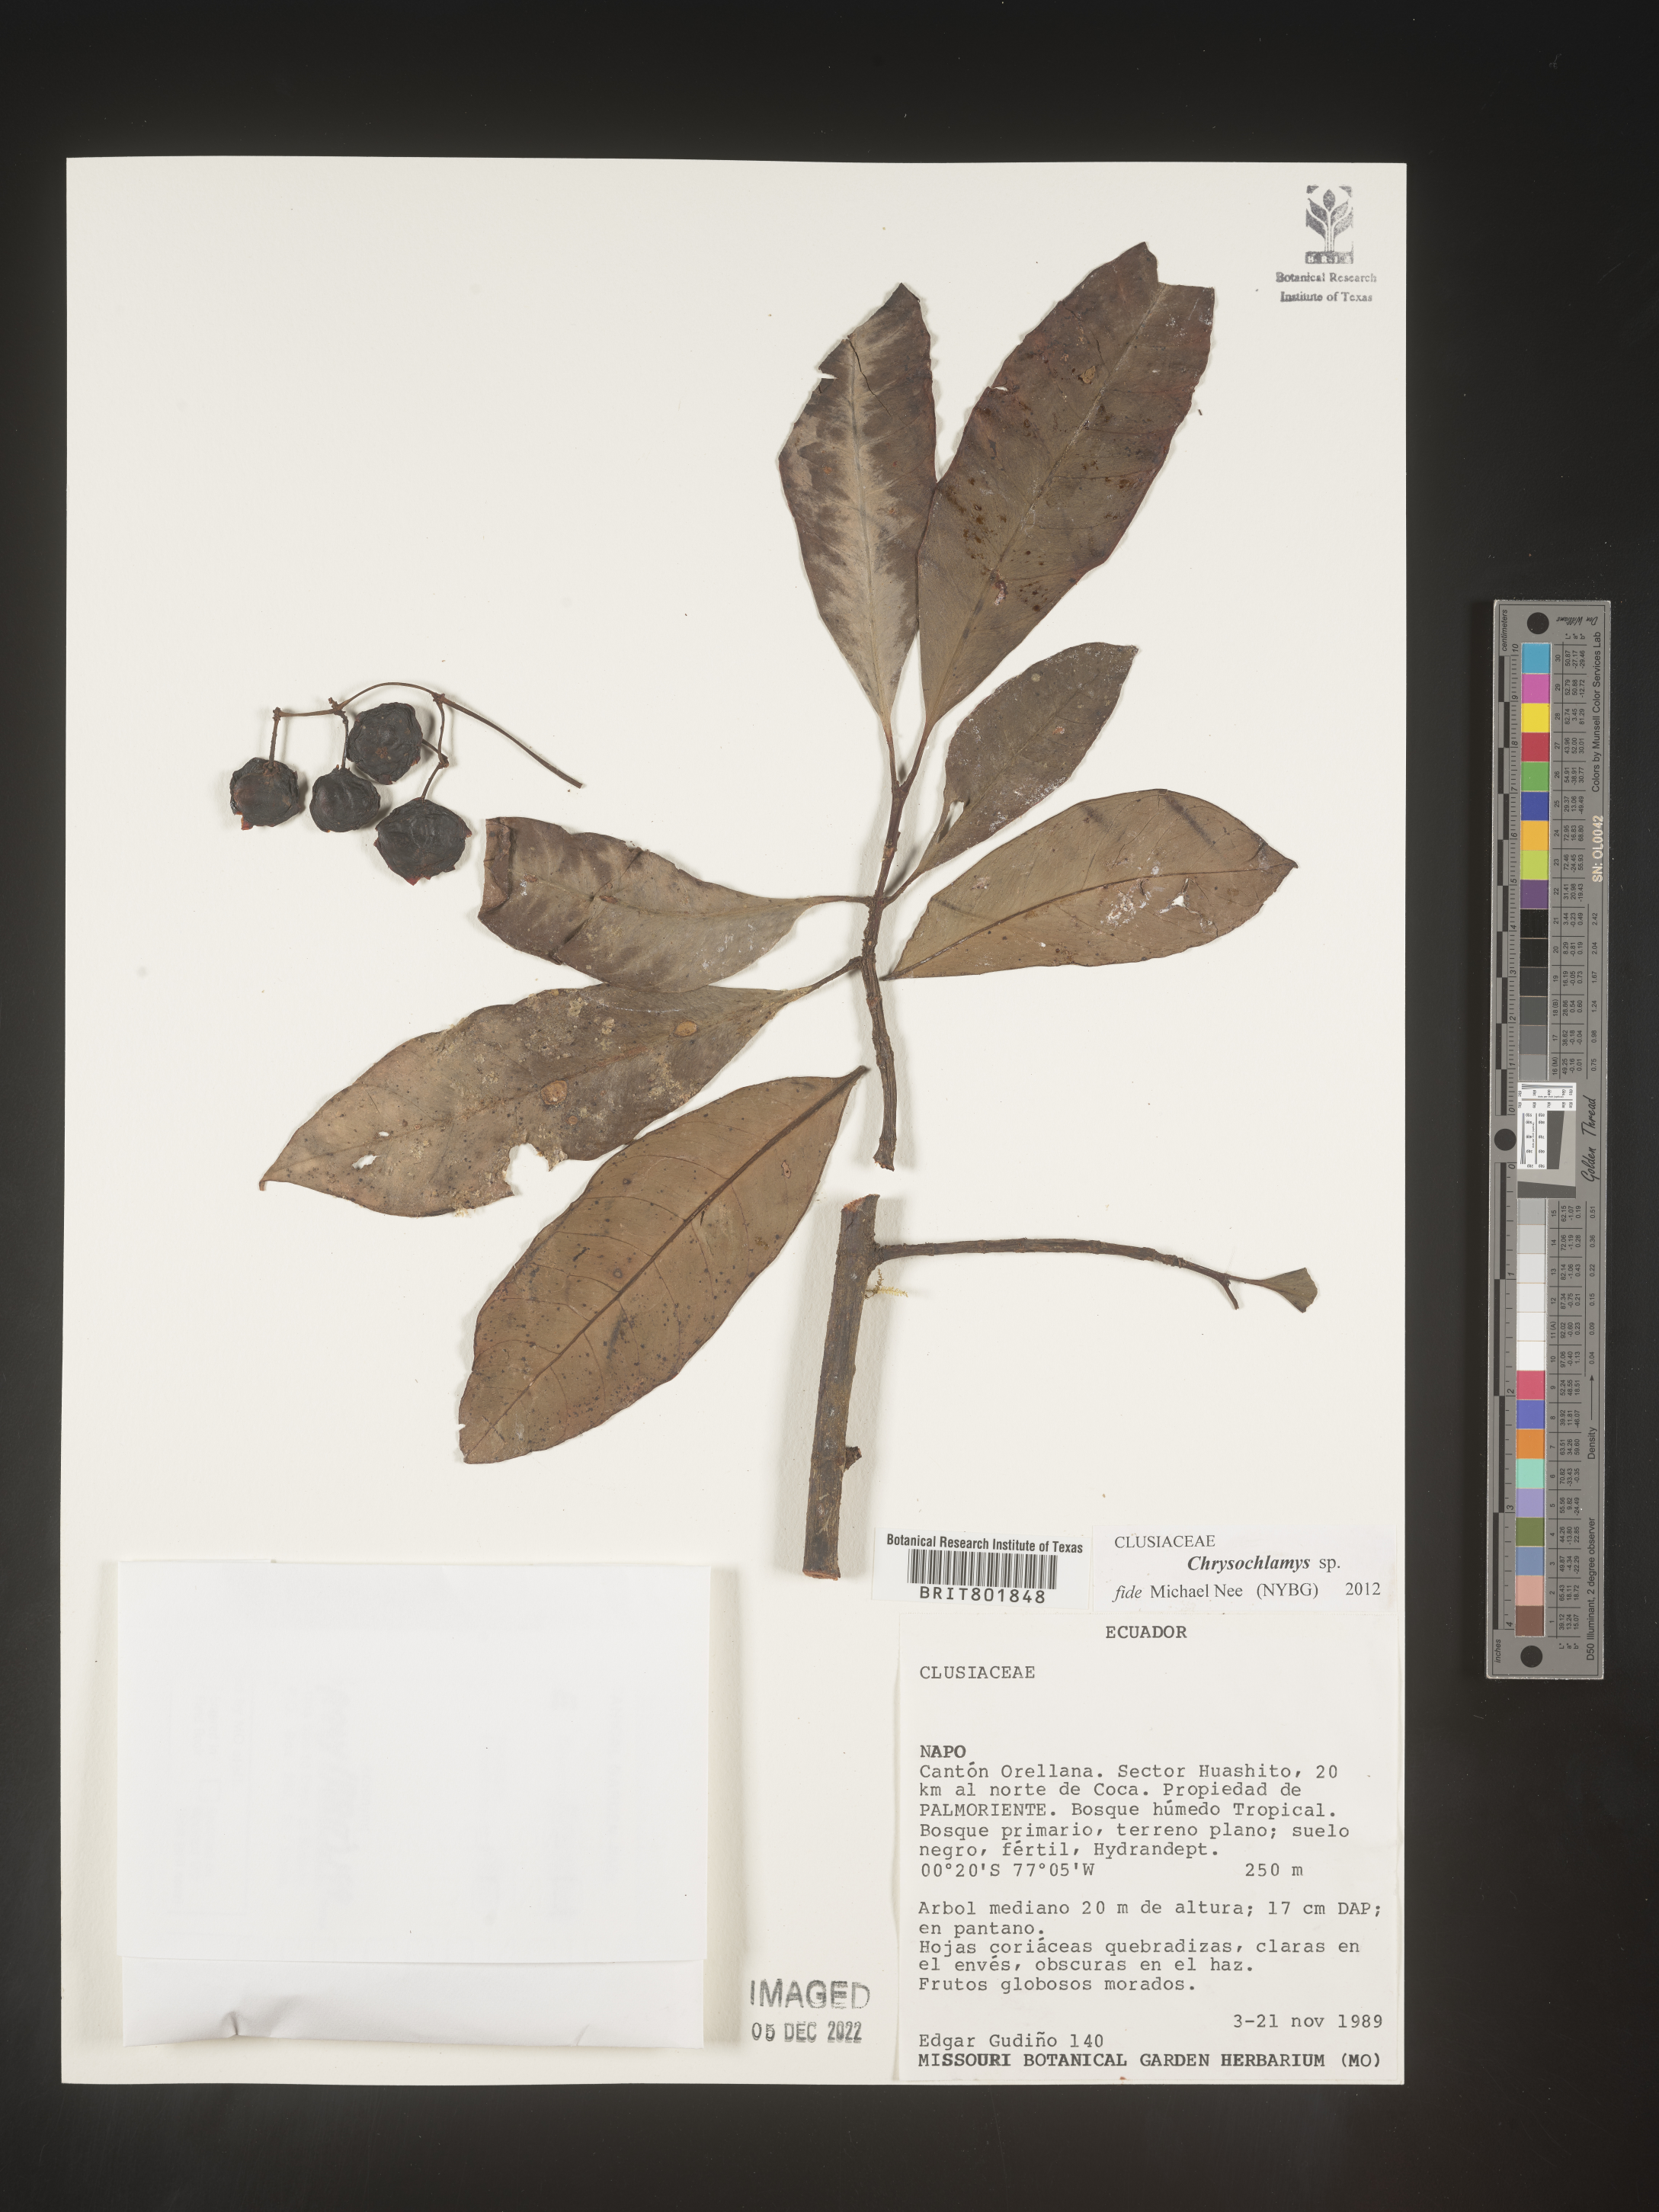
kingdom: Plantae
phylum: Tracheophyta
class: Magnoliopsida
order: Malpighiales
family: Clusiaceae
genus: Chrysochlamys
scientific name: Chrysochlamys
